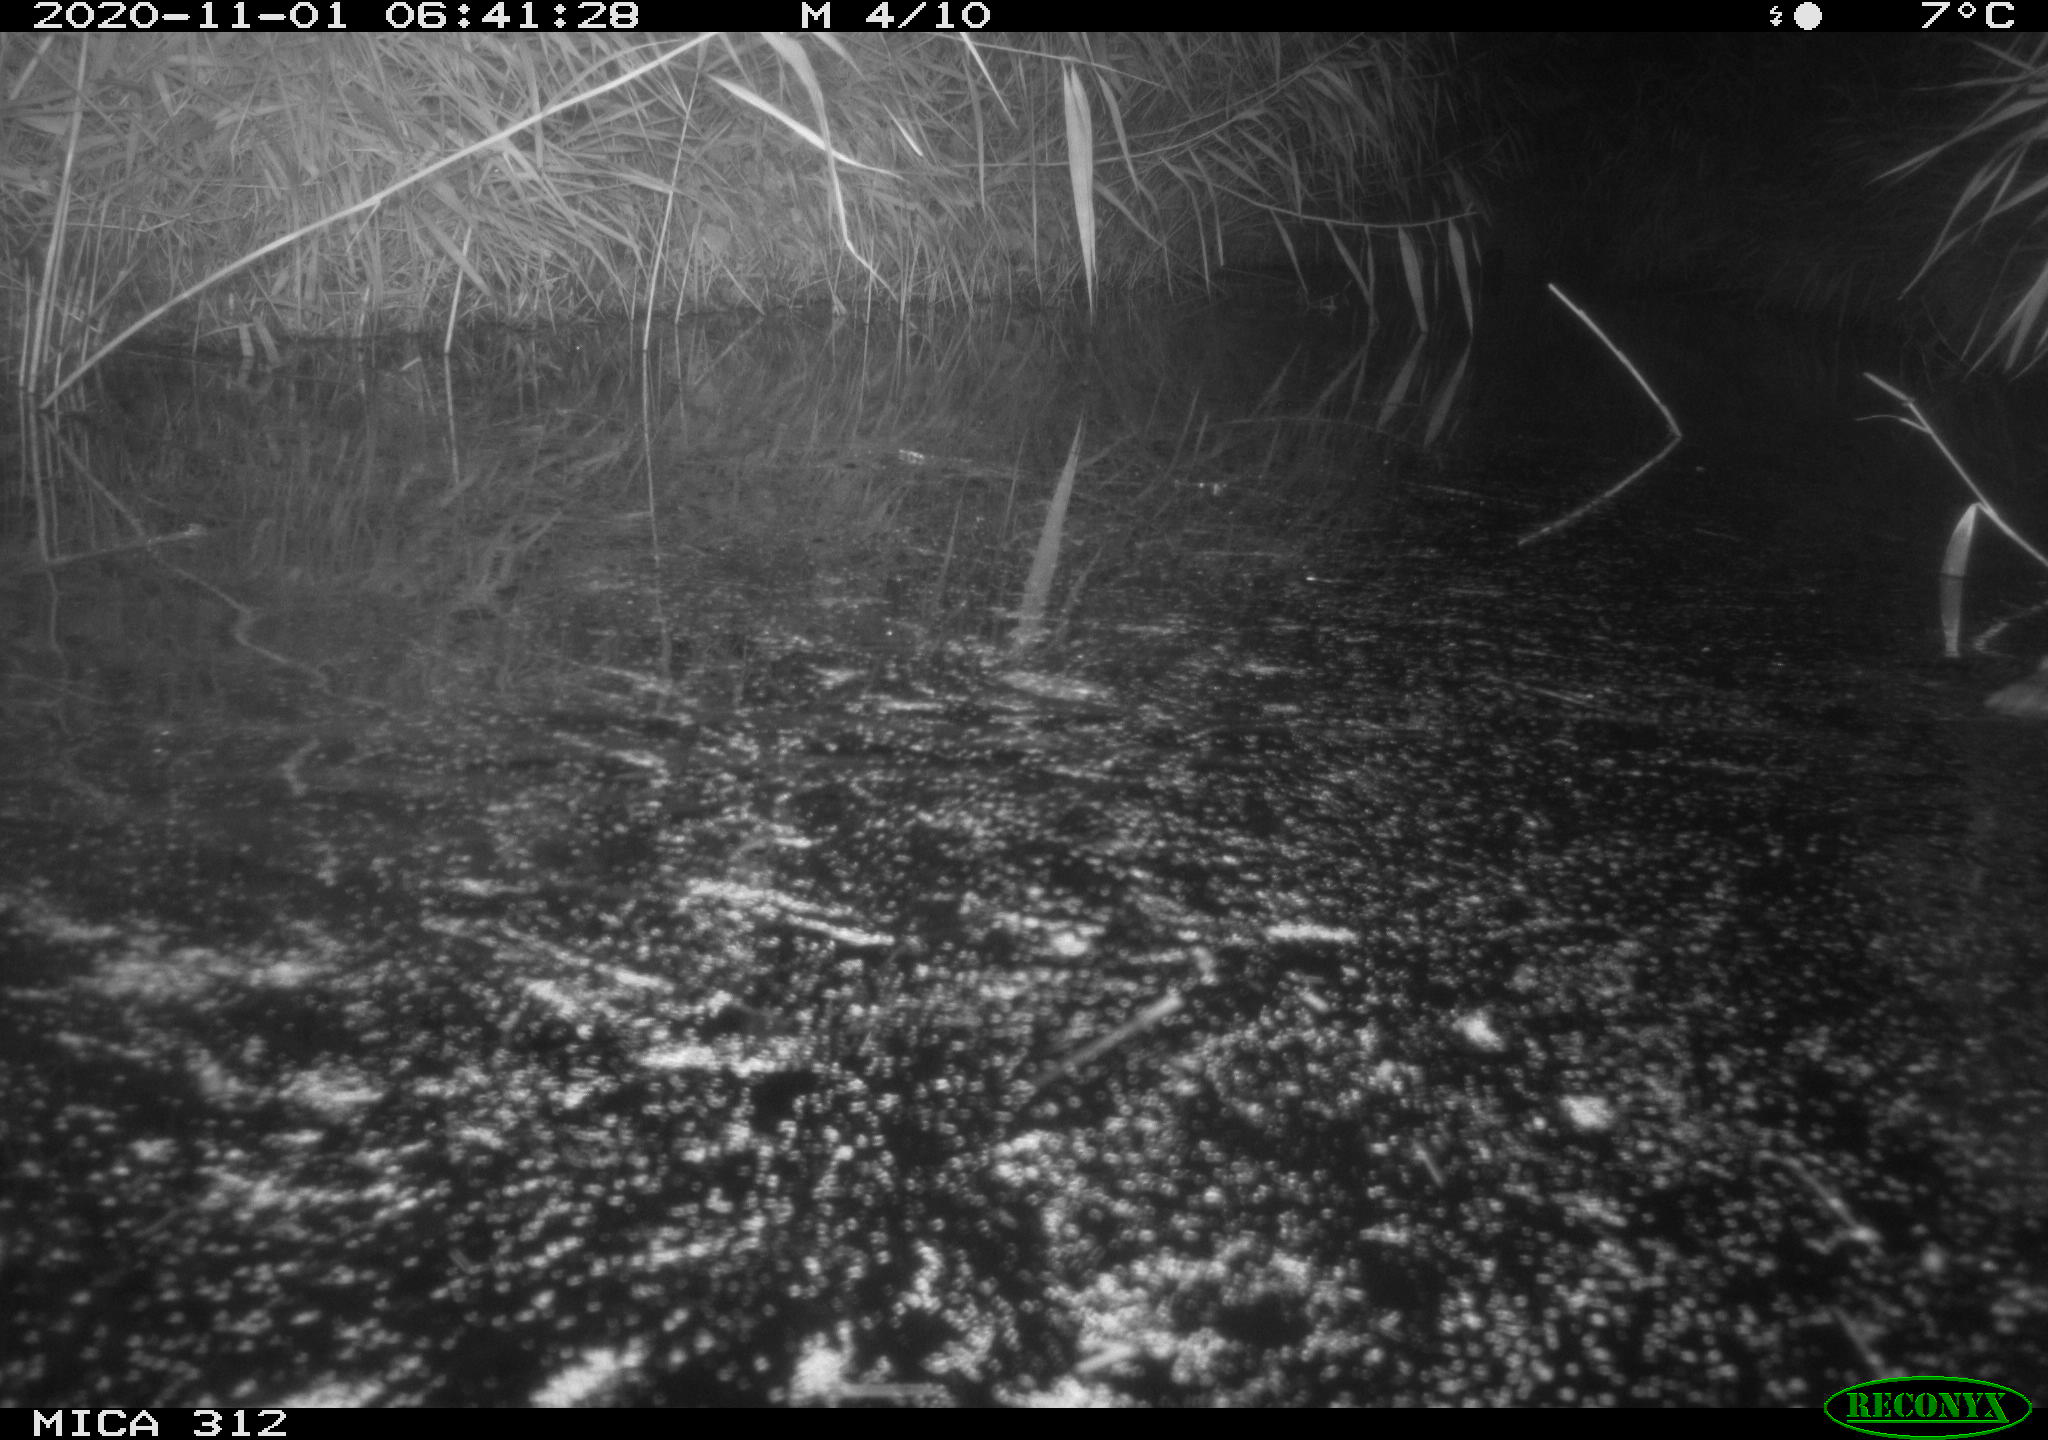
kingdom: Animalia
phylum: Chordata
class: Mammalia
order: Rodentia
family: Muridae
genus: Rattus
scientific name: Rattus norvegicus
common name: Brown rat
